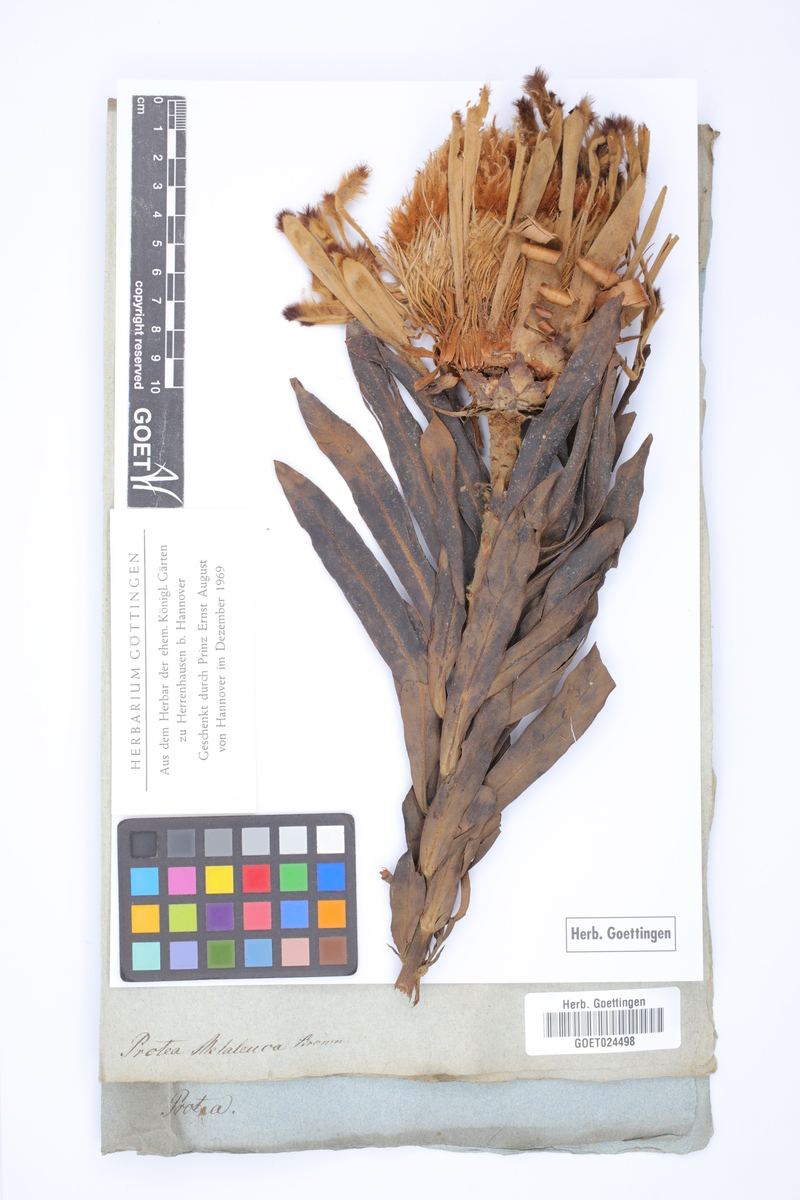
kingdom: Plantae
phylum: Tracheophyta
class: Magnoliopsida
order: Proteales
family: Proteaceae
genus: Protea
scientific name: Protea laurifolia
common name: Grey-leaf sugarbsh
